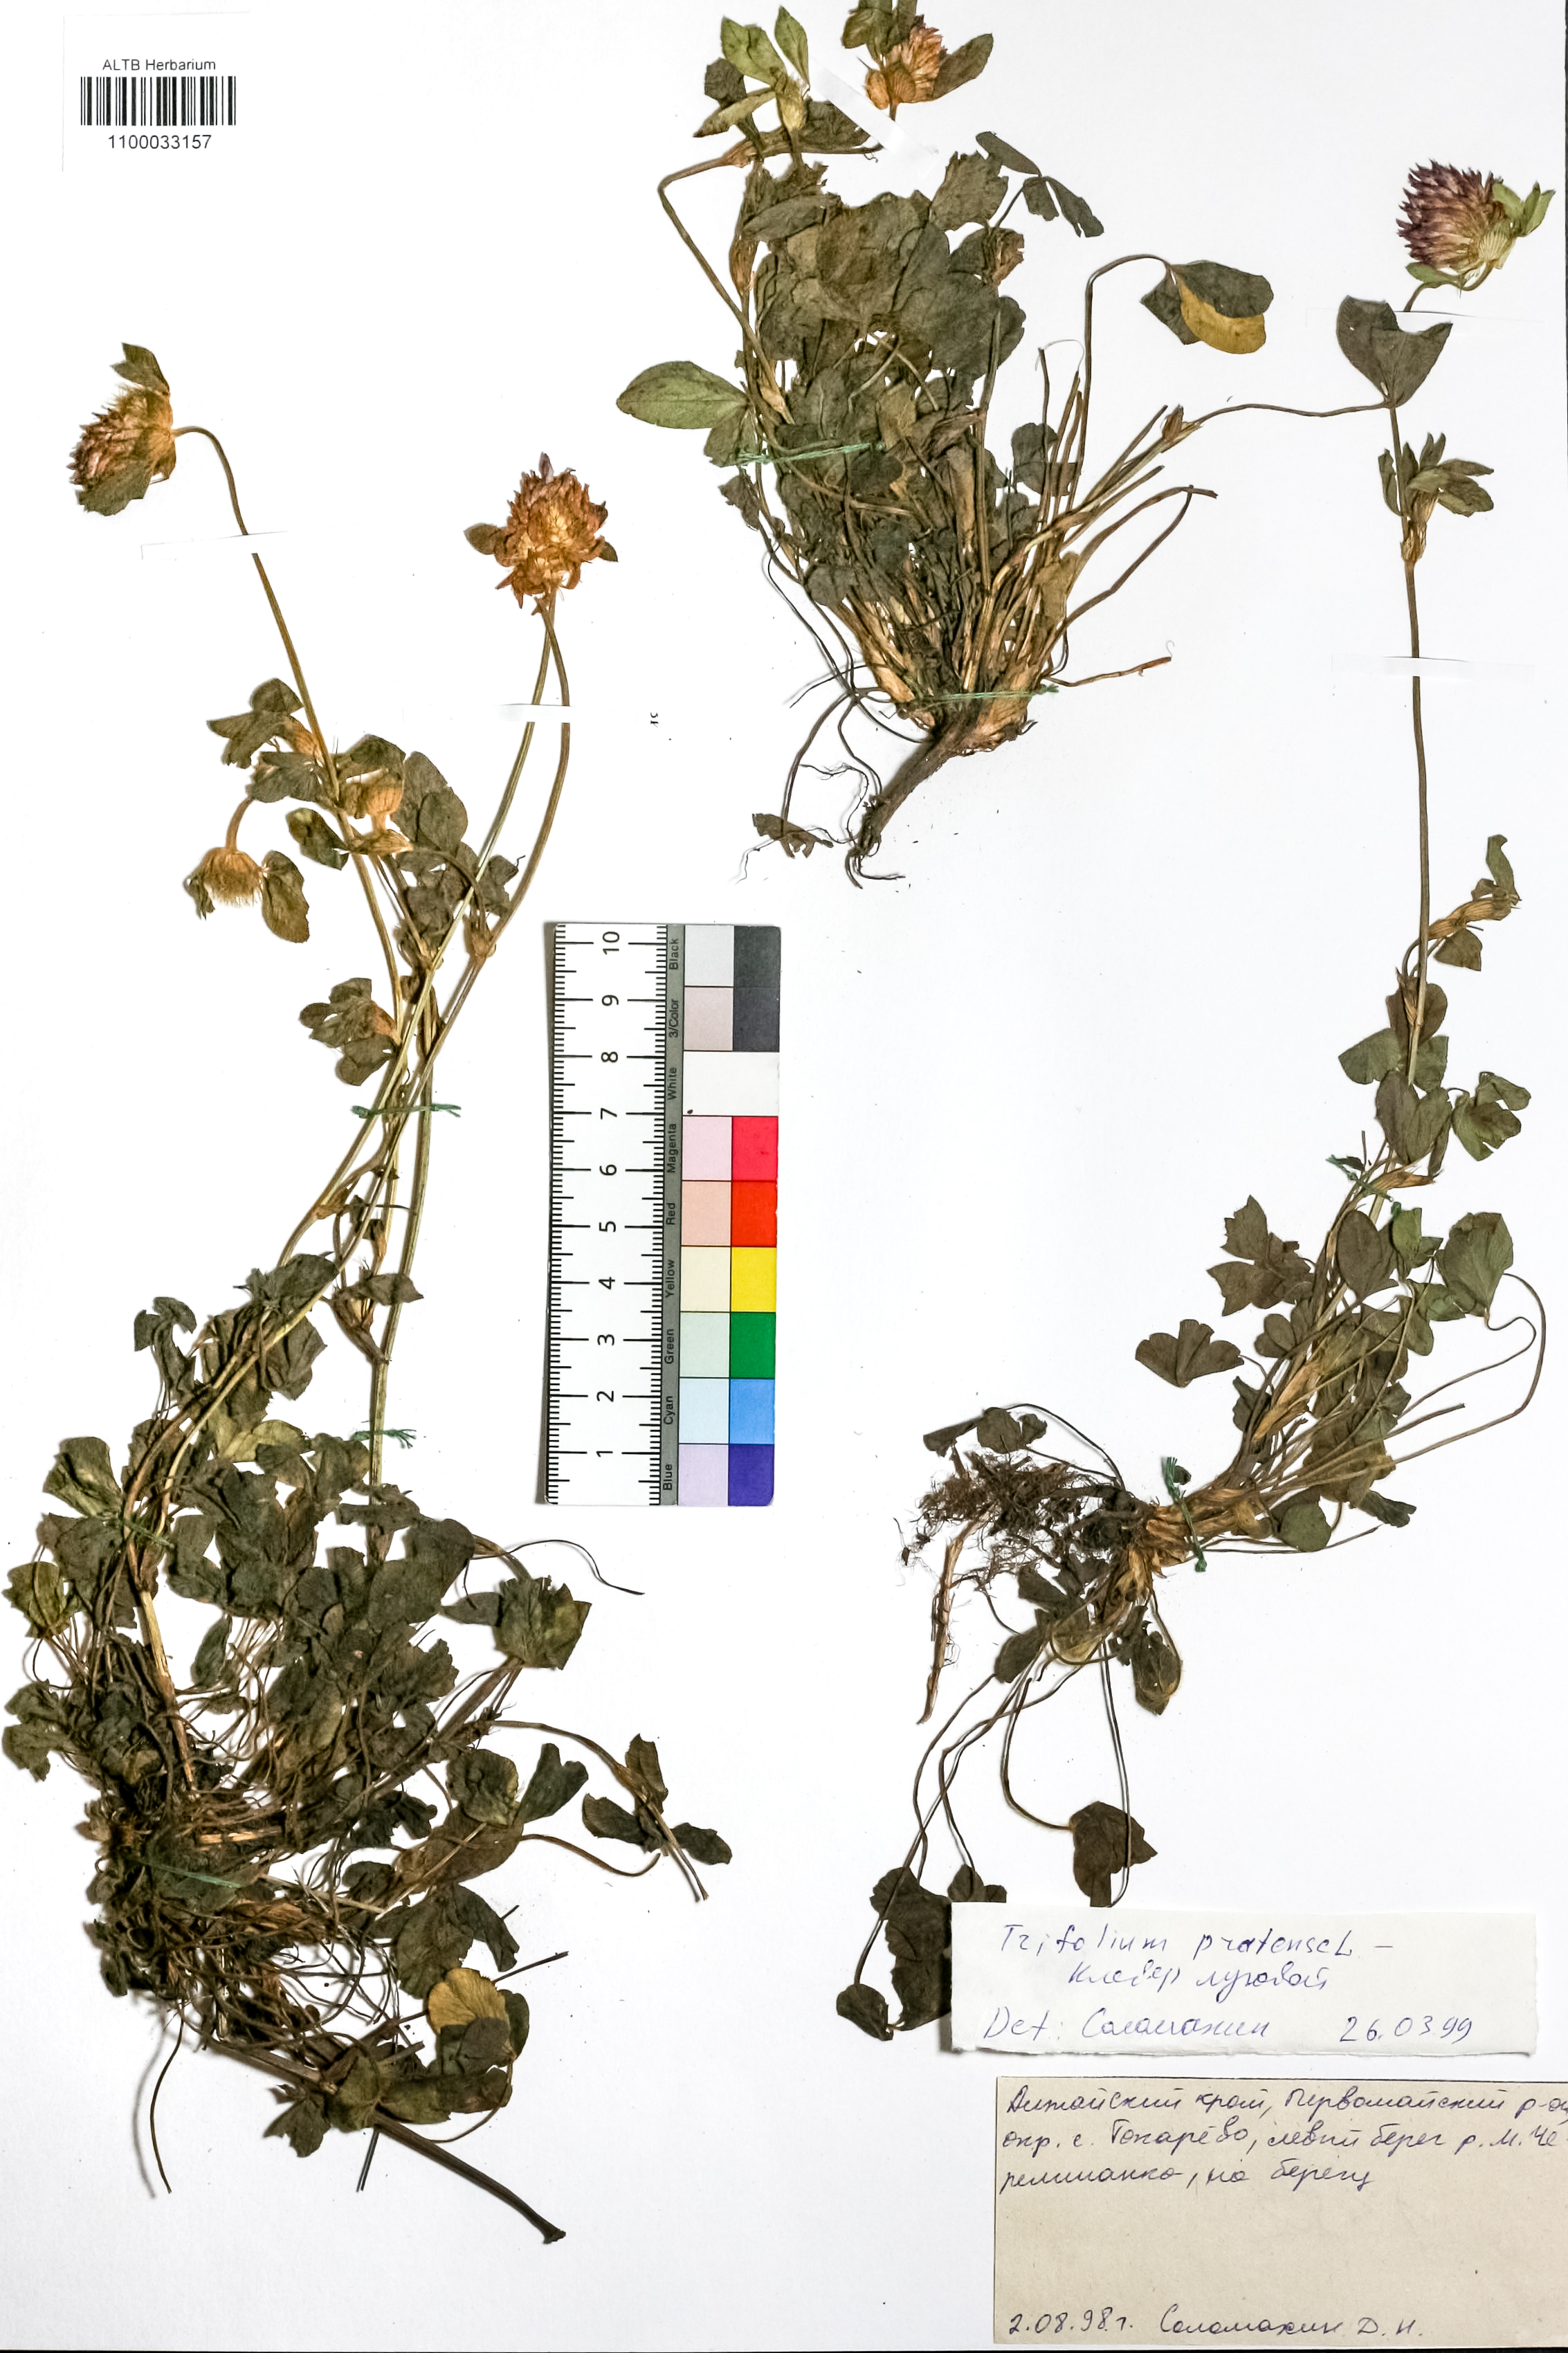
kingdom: Plantae
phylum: Tracheophyta
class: Magnoliopsida
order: Fabales
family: Fabaceae
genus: Trifolium
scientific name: Trifolium pratense
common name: Red clover
